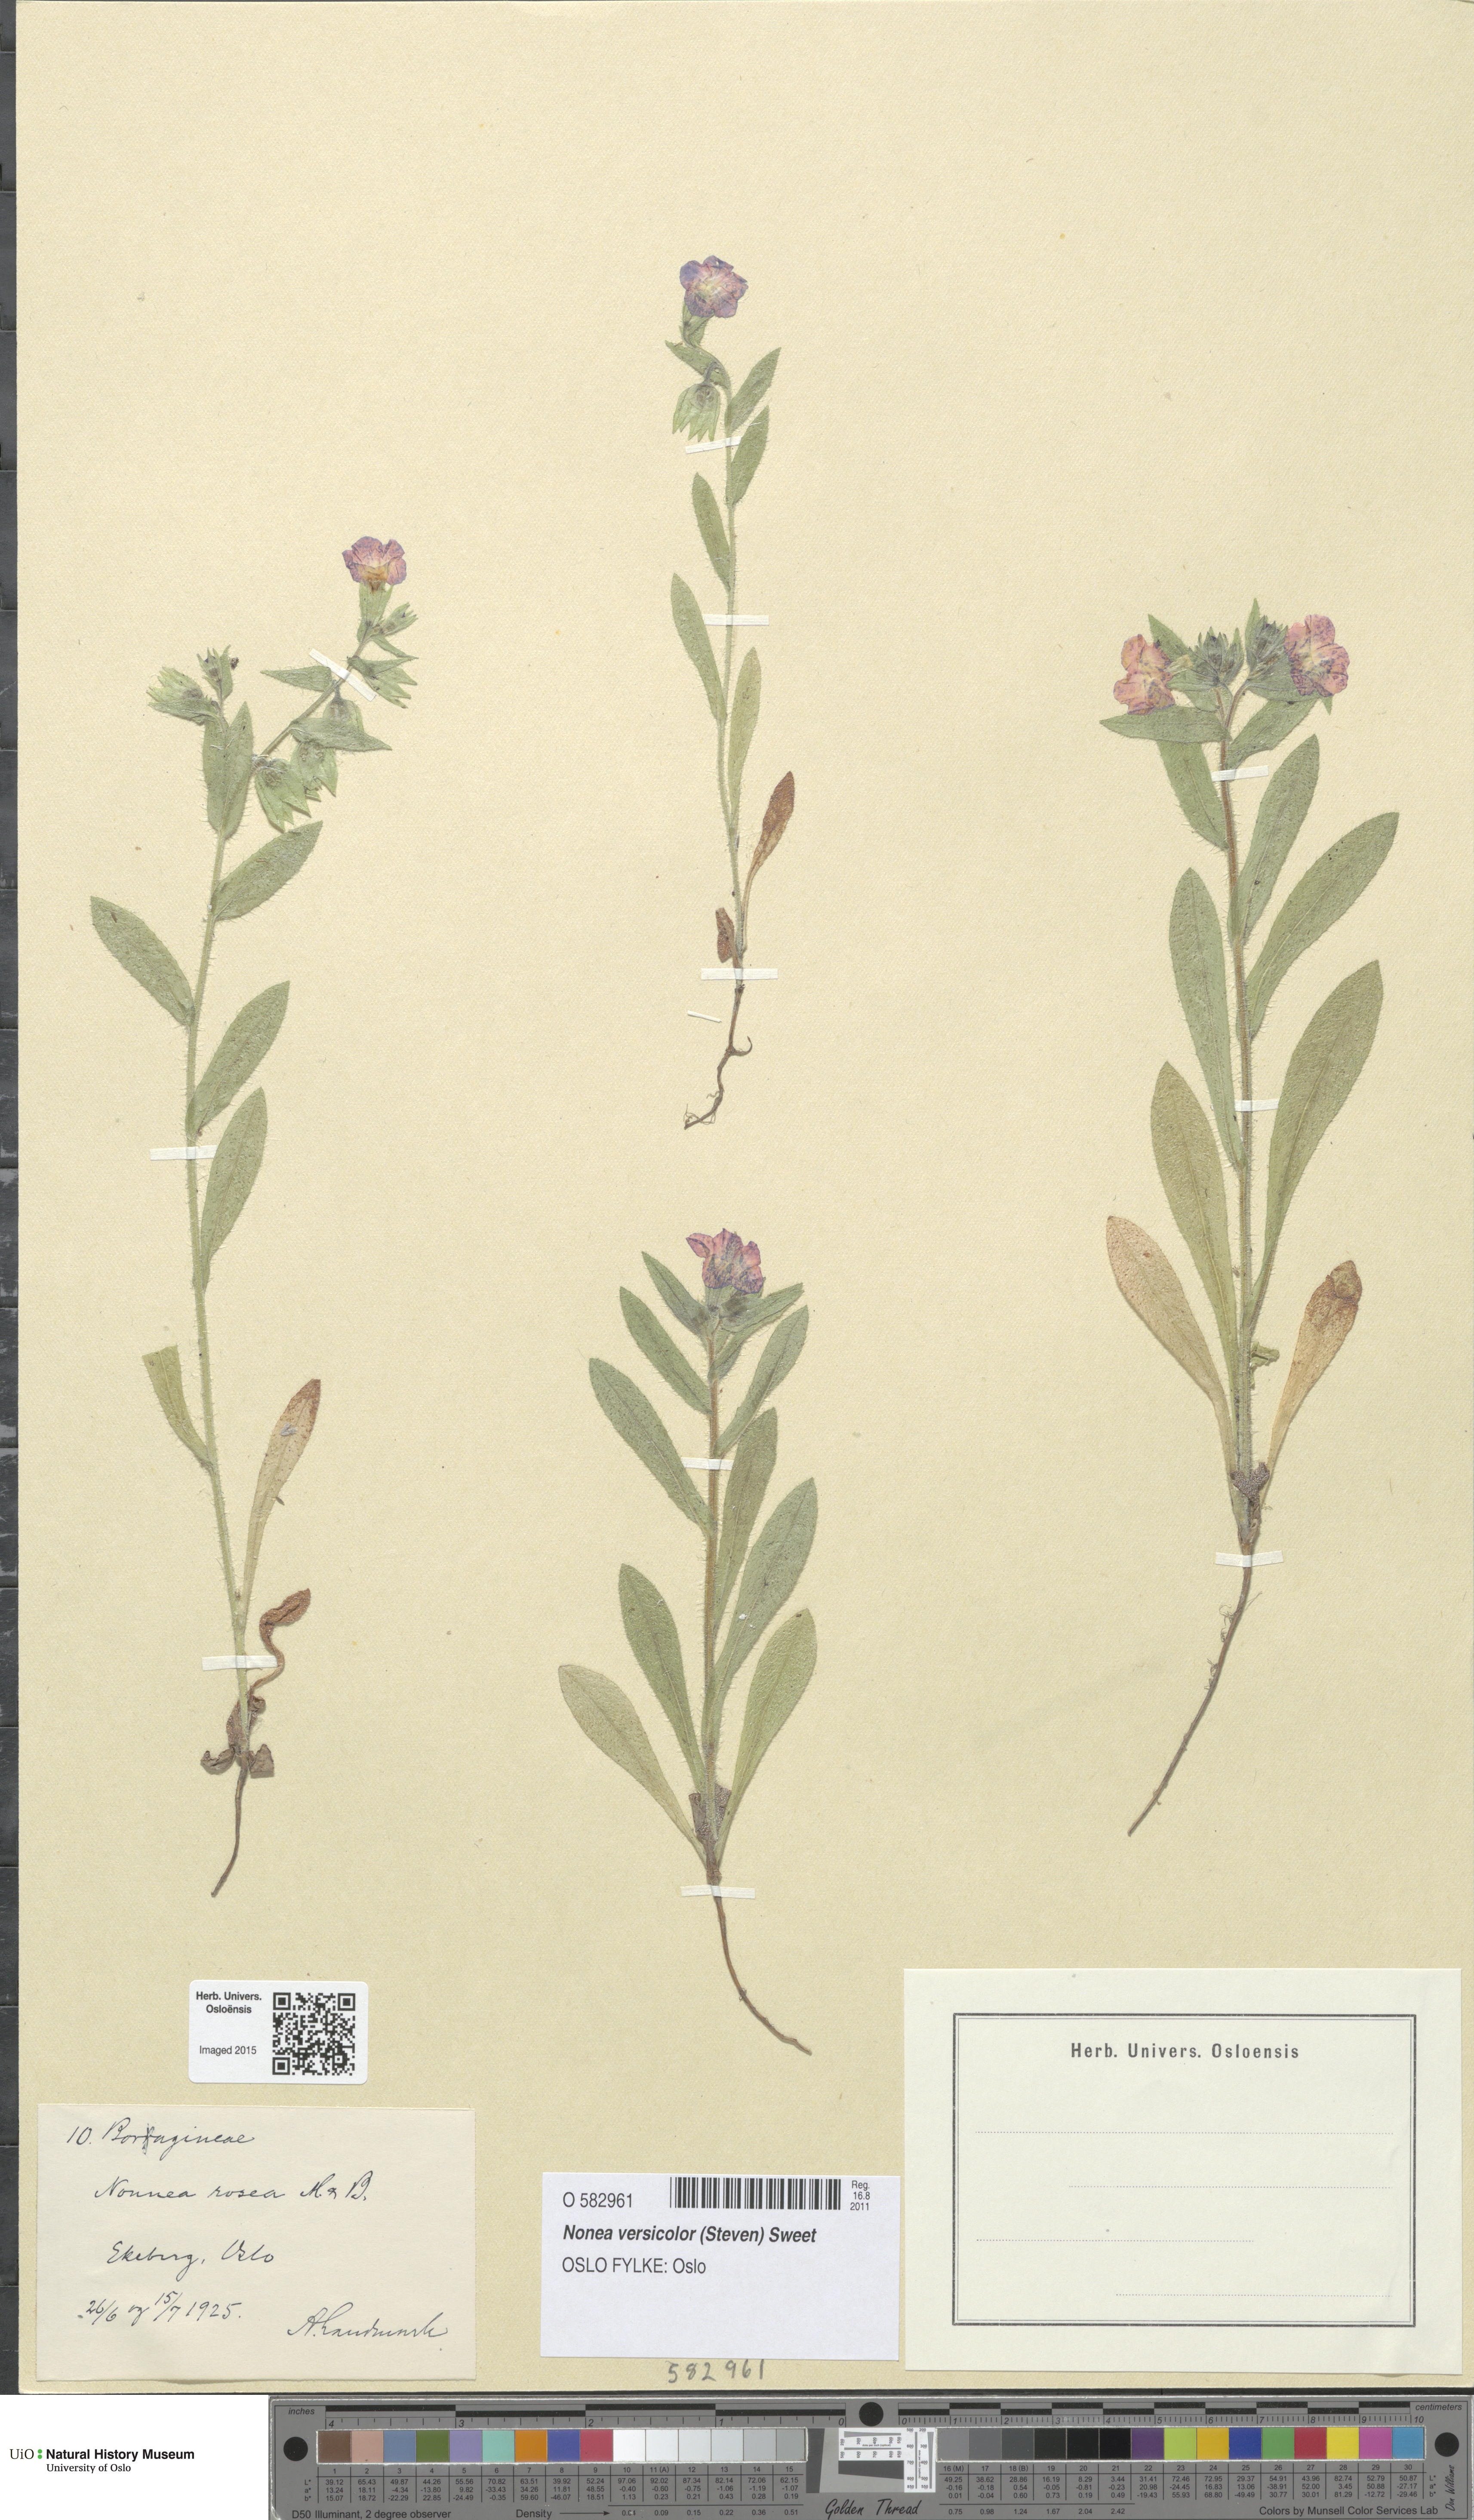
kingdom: Plantae
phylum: Tracheophyta
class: Magnoliopsida
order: Boraginales
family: Boraginaceae
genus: Nonea
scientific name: Nonea versicolor
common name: Varied monkswort
